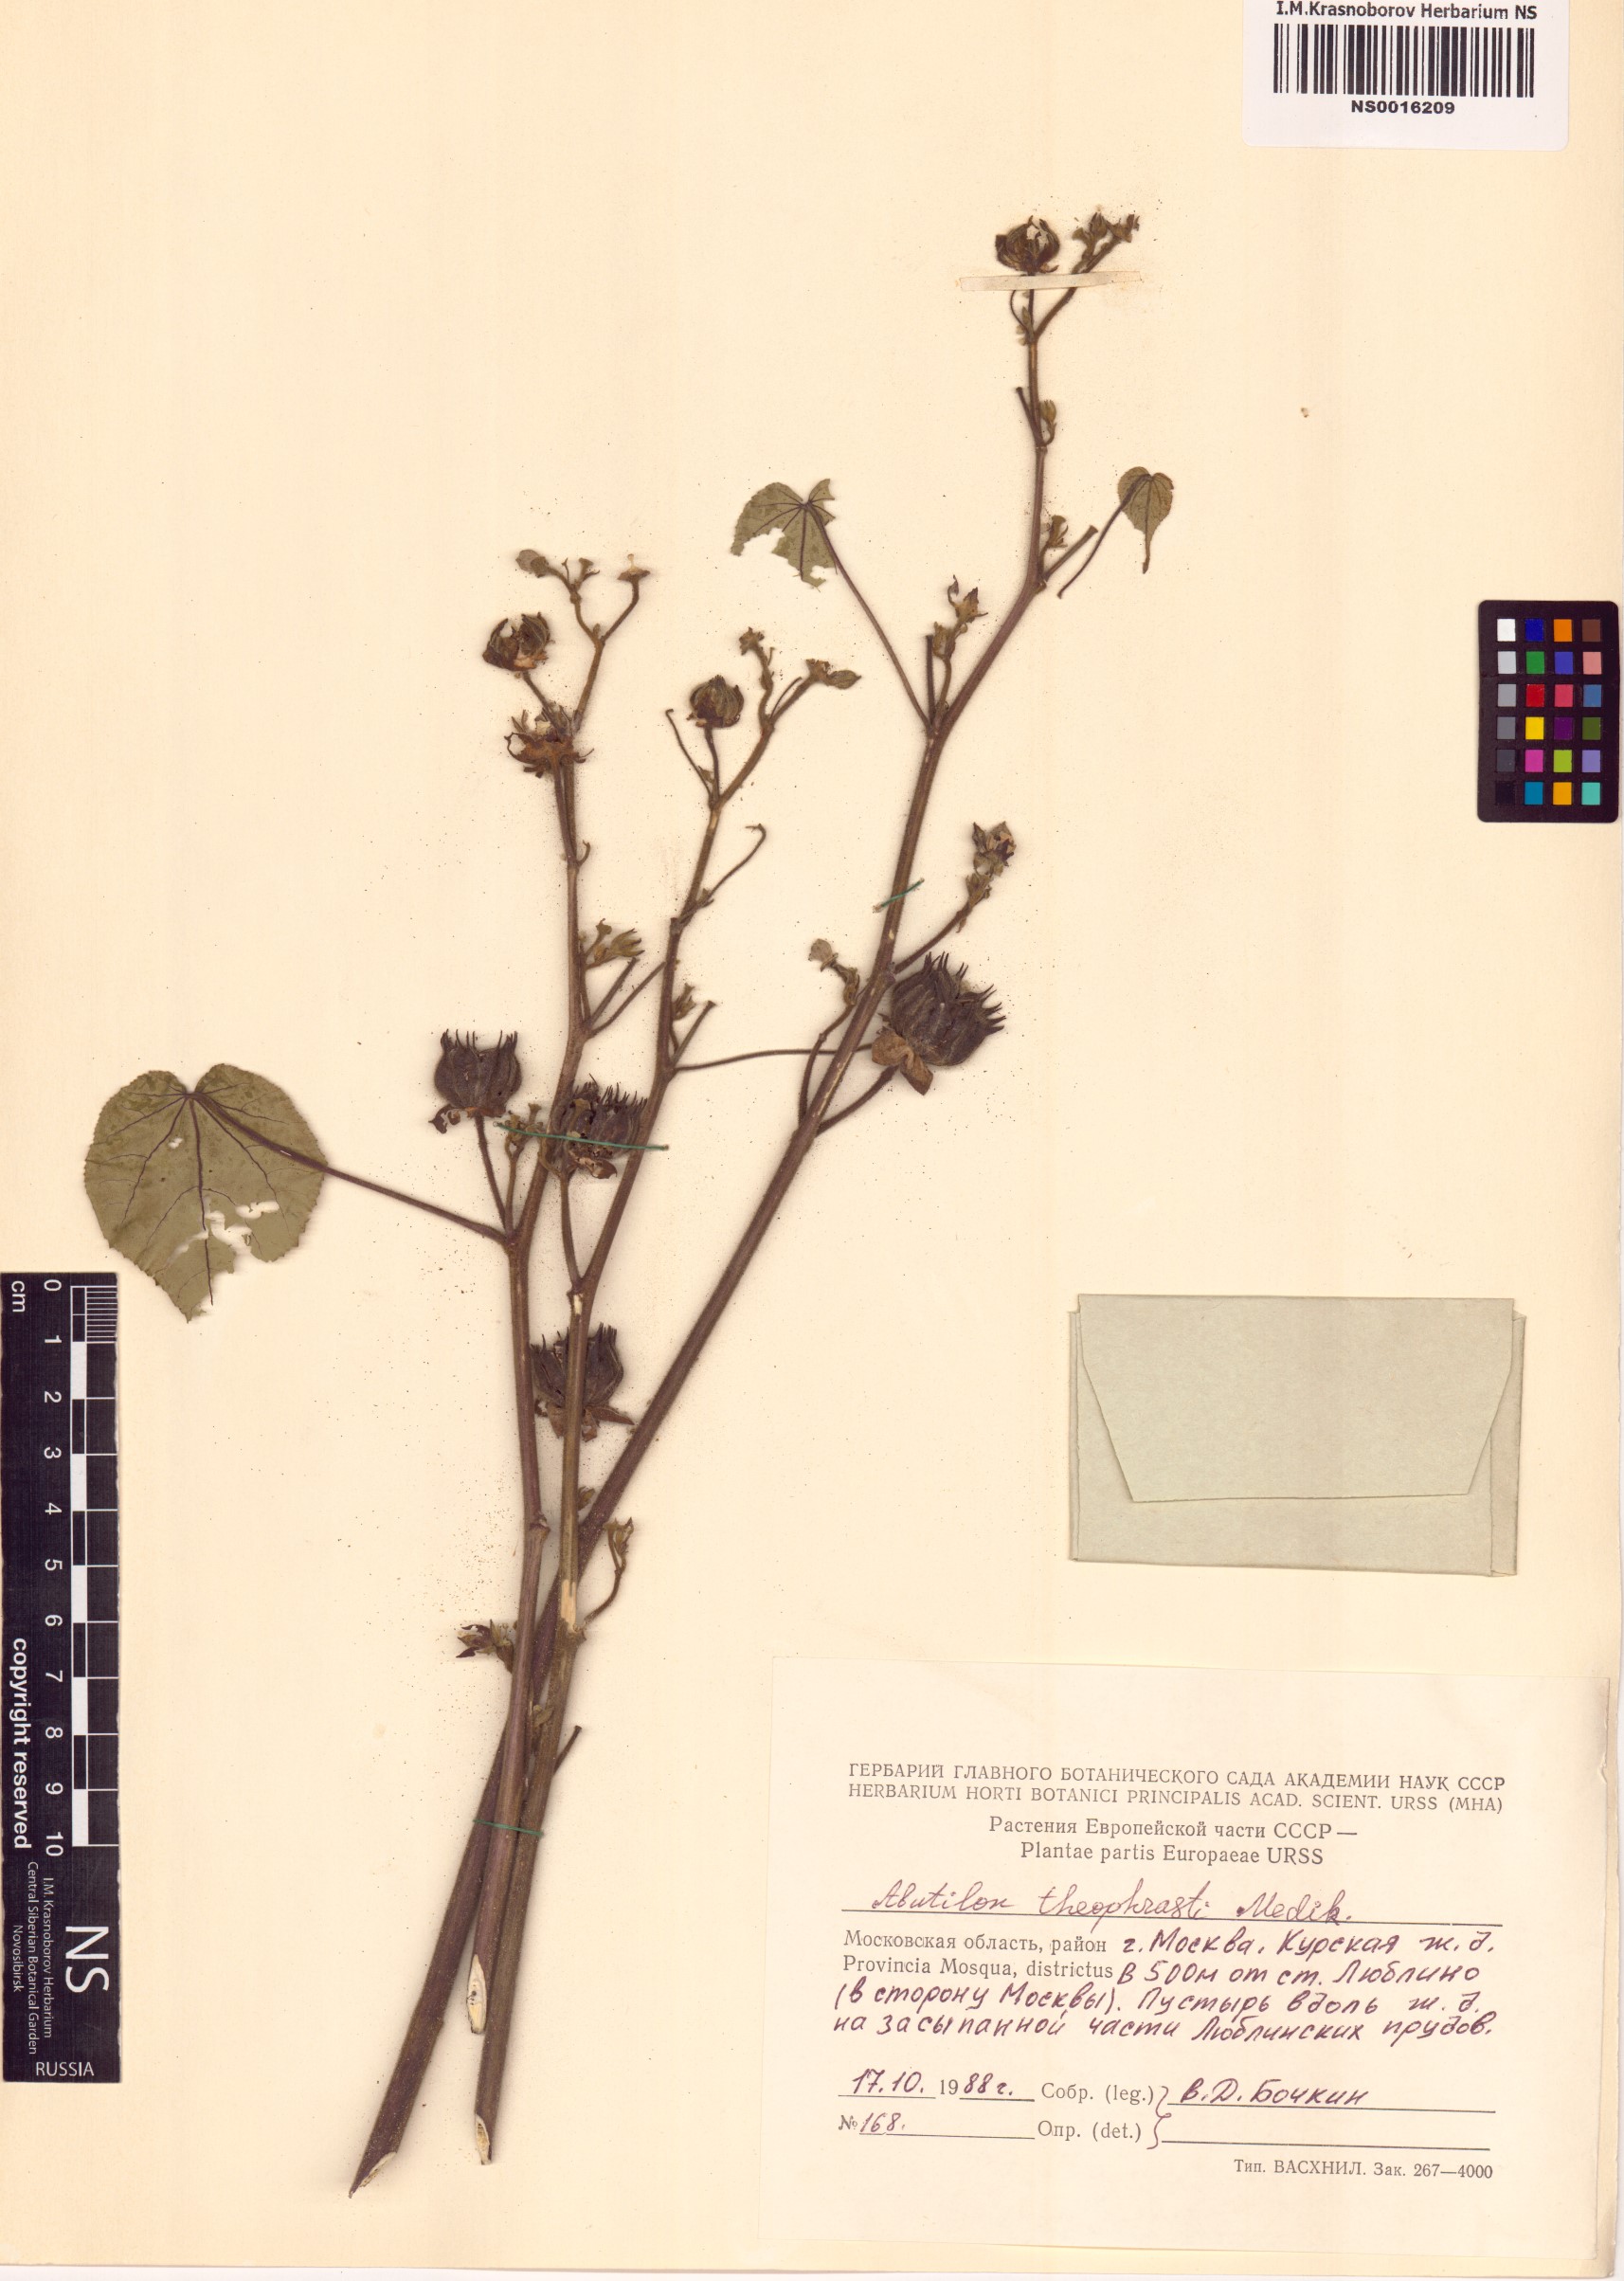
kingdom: Plantae
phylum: Tracheophyta
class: Magnoliopsida
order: Malvales
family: Malvaceae
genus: Abutilon
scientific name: Abutilon theophrasti
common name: Velvetleaf
